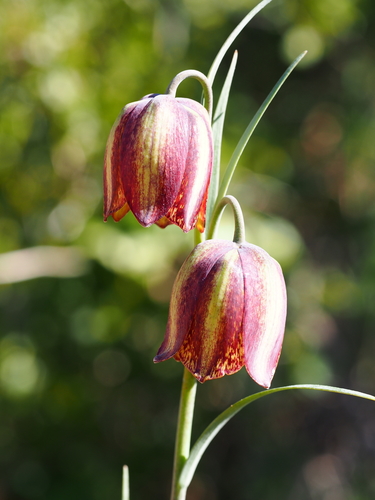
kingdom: Plantae
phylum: Tracheophyta
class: Liliopsida
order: Liliales
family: Liliaceae
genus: Fritillaria
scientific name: Fritillaria lusitanica
